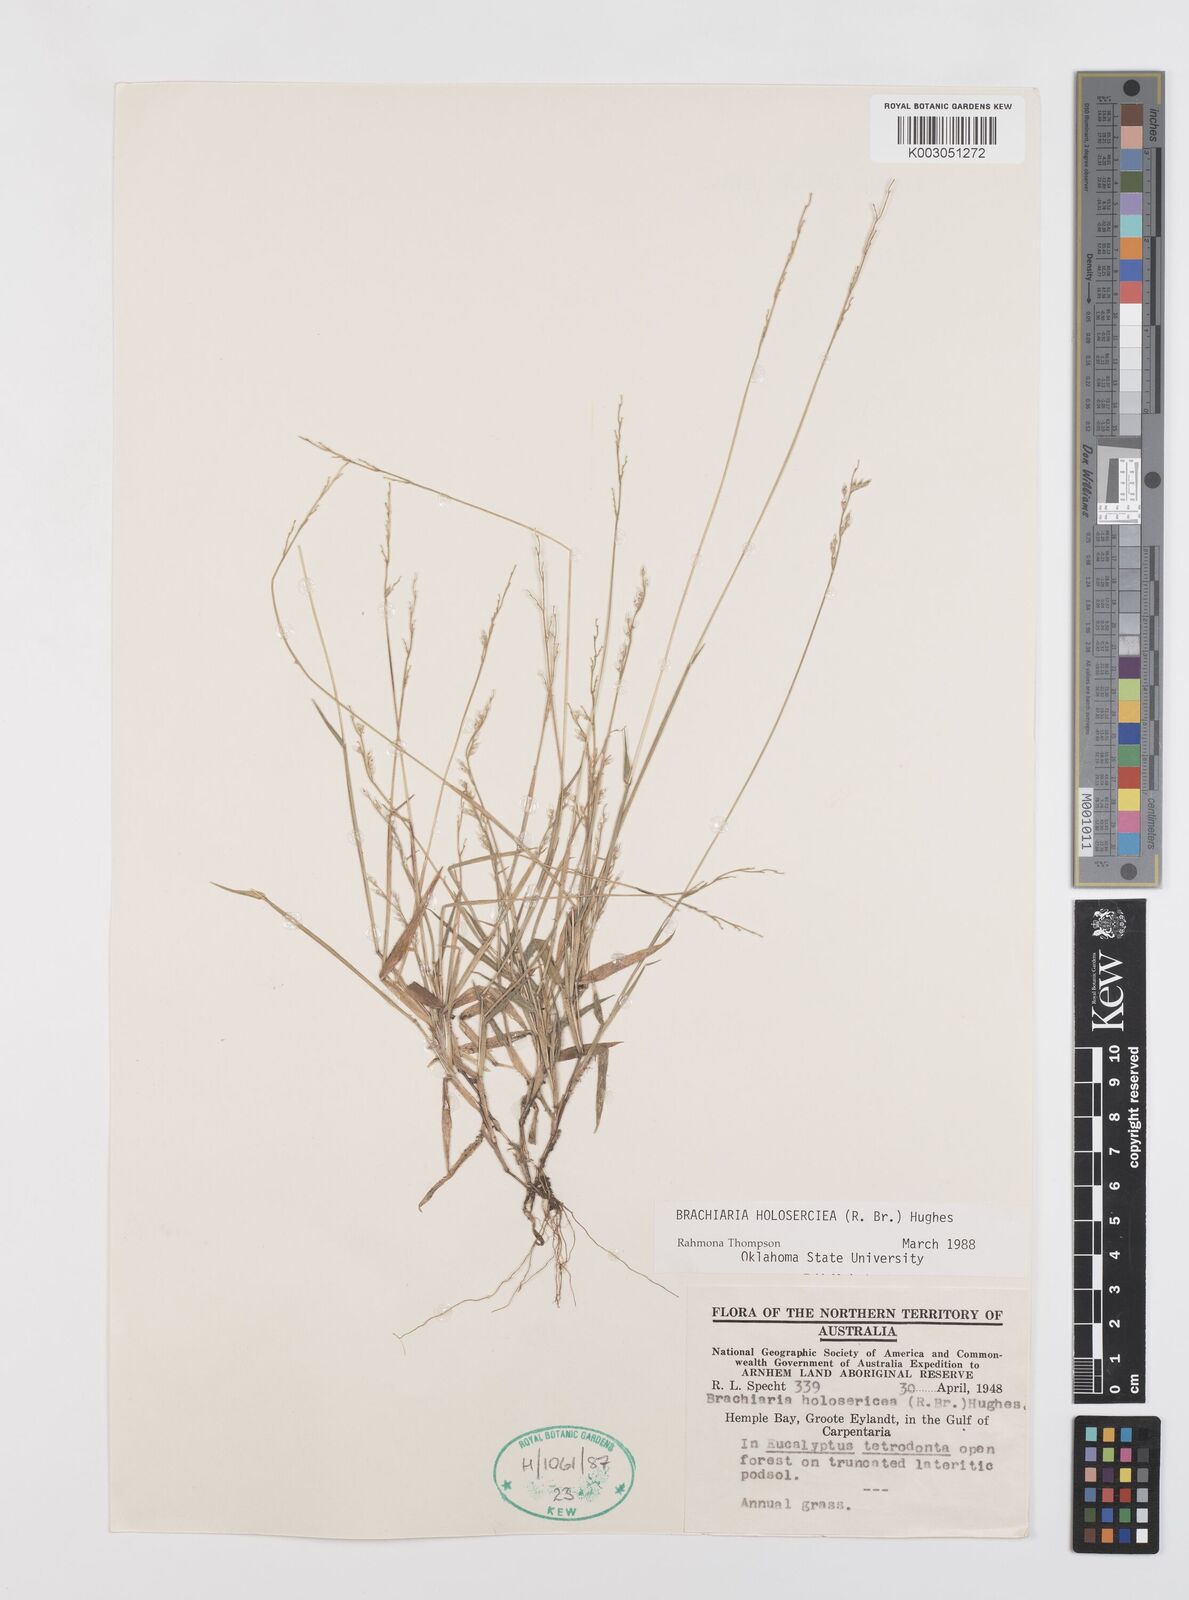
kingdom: Plantae
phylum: Tracheophyta
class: Liliopsida
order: Poales
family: Poaceae
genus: Urochloa
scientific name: Urochloa holosericea
